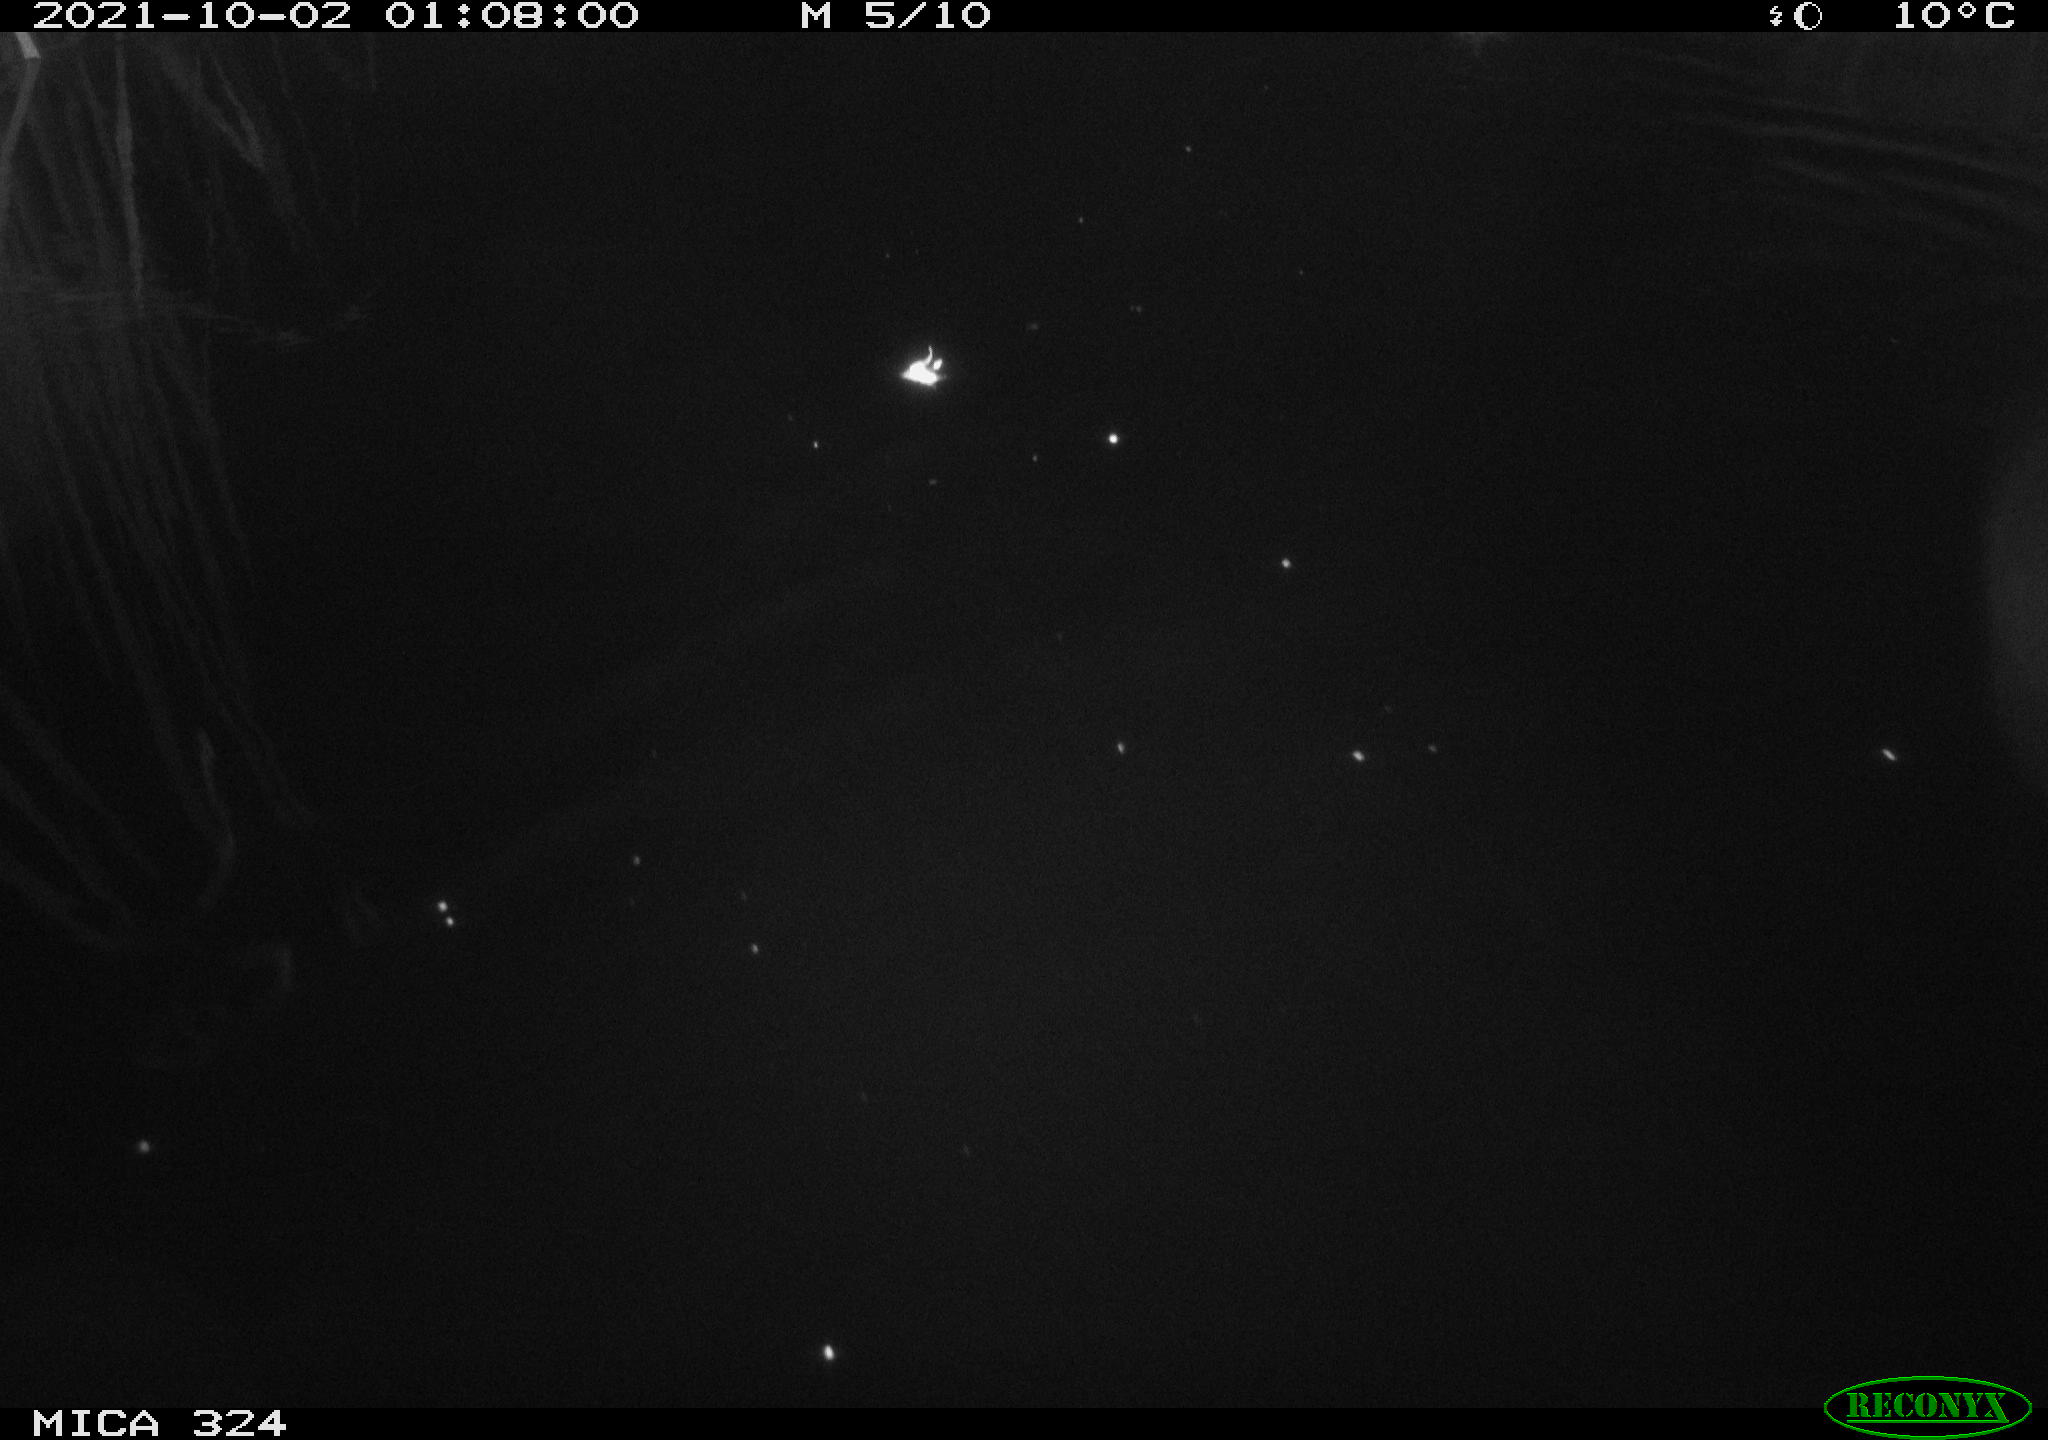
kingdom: Animalia
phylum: Chordata
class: Mammalia
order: Rodentia
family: Cricetidae
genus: Ondatra
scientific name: Ondatra zibethicus
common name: Muskrat
